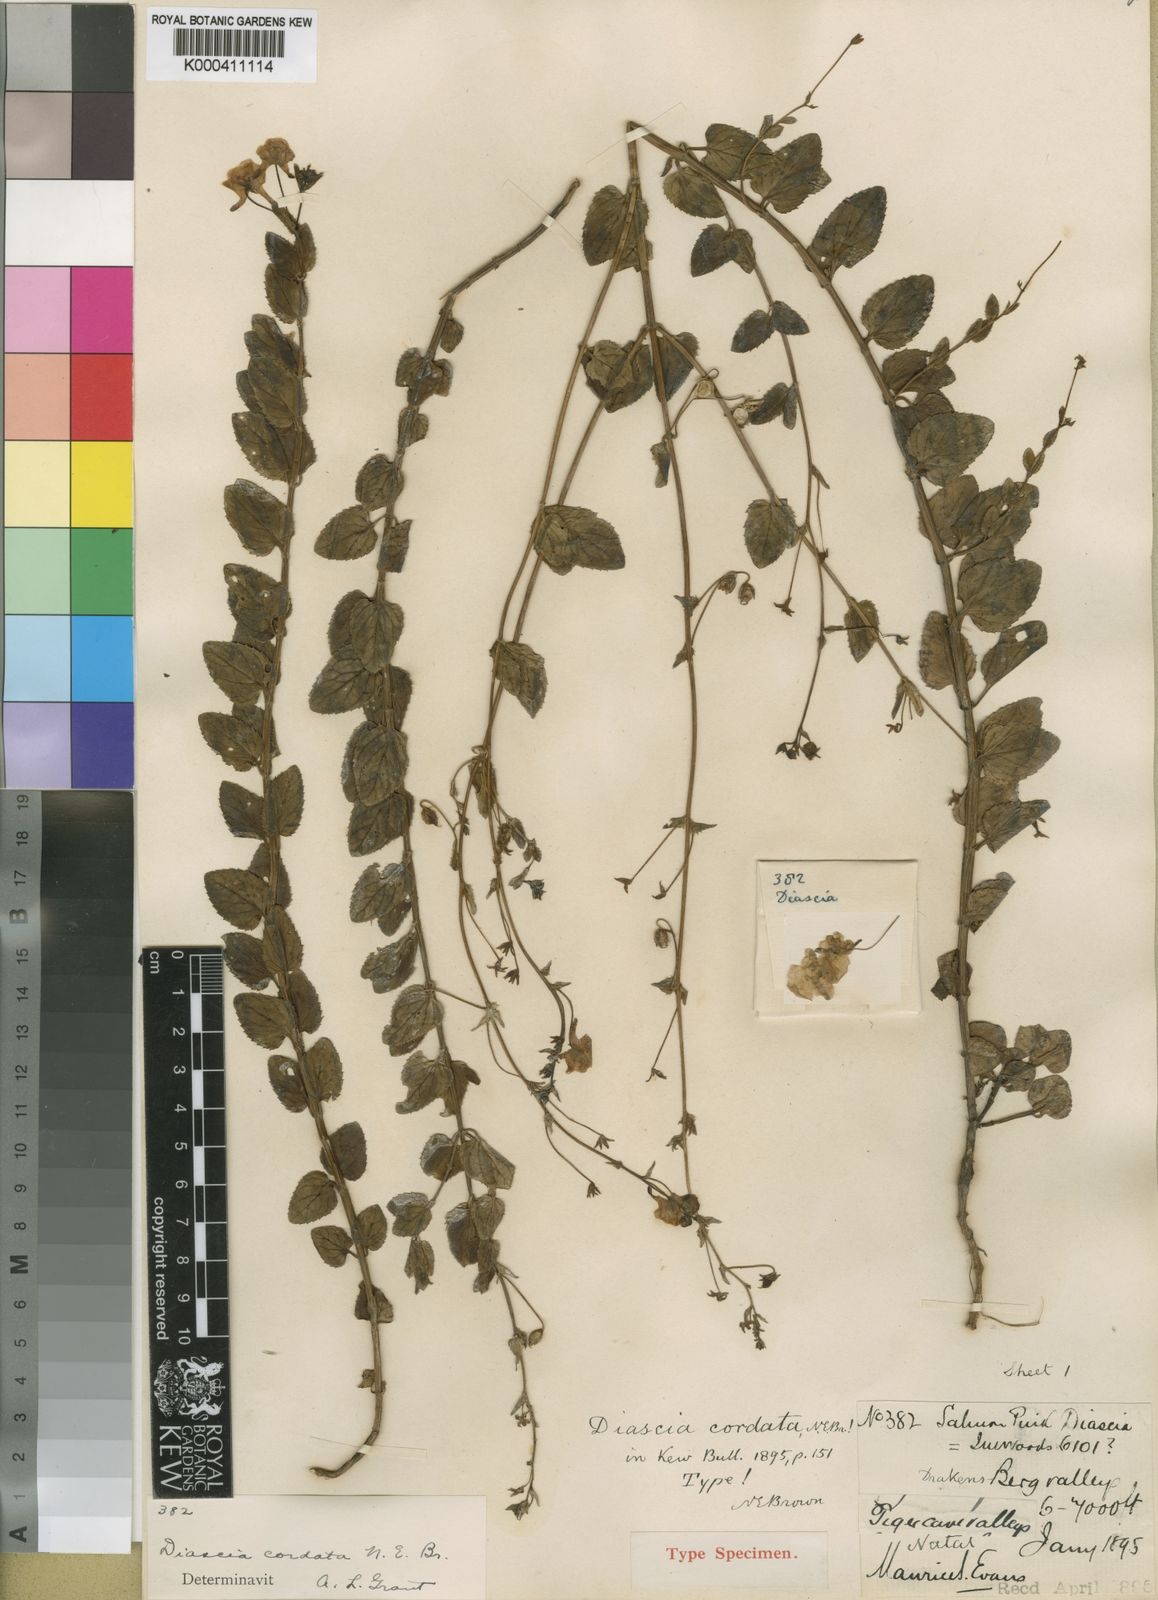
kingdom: Plantae
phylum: Tracheophyta
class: Magnoliopsida
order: Lamiales
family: Scrophulariaceae
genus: Diascia
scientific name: Diascia cordata
